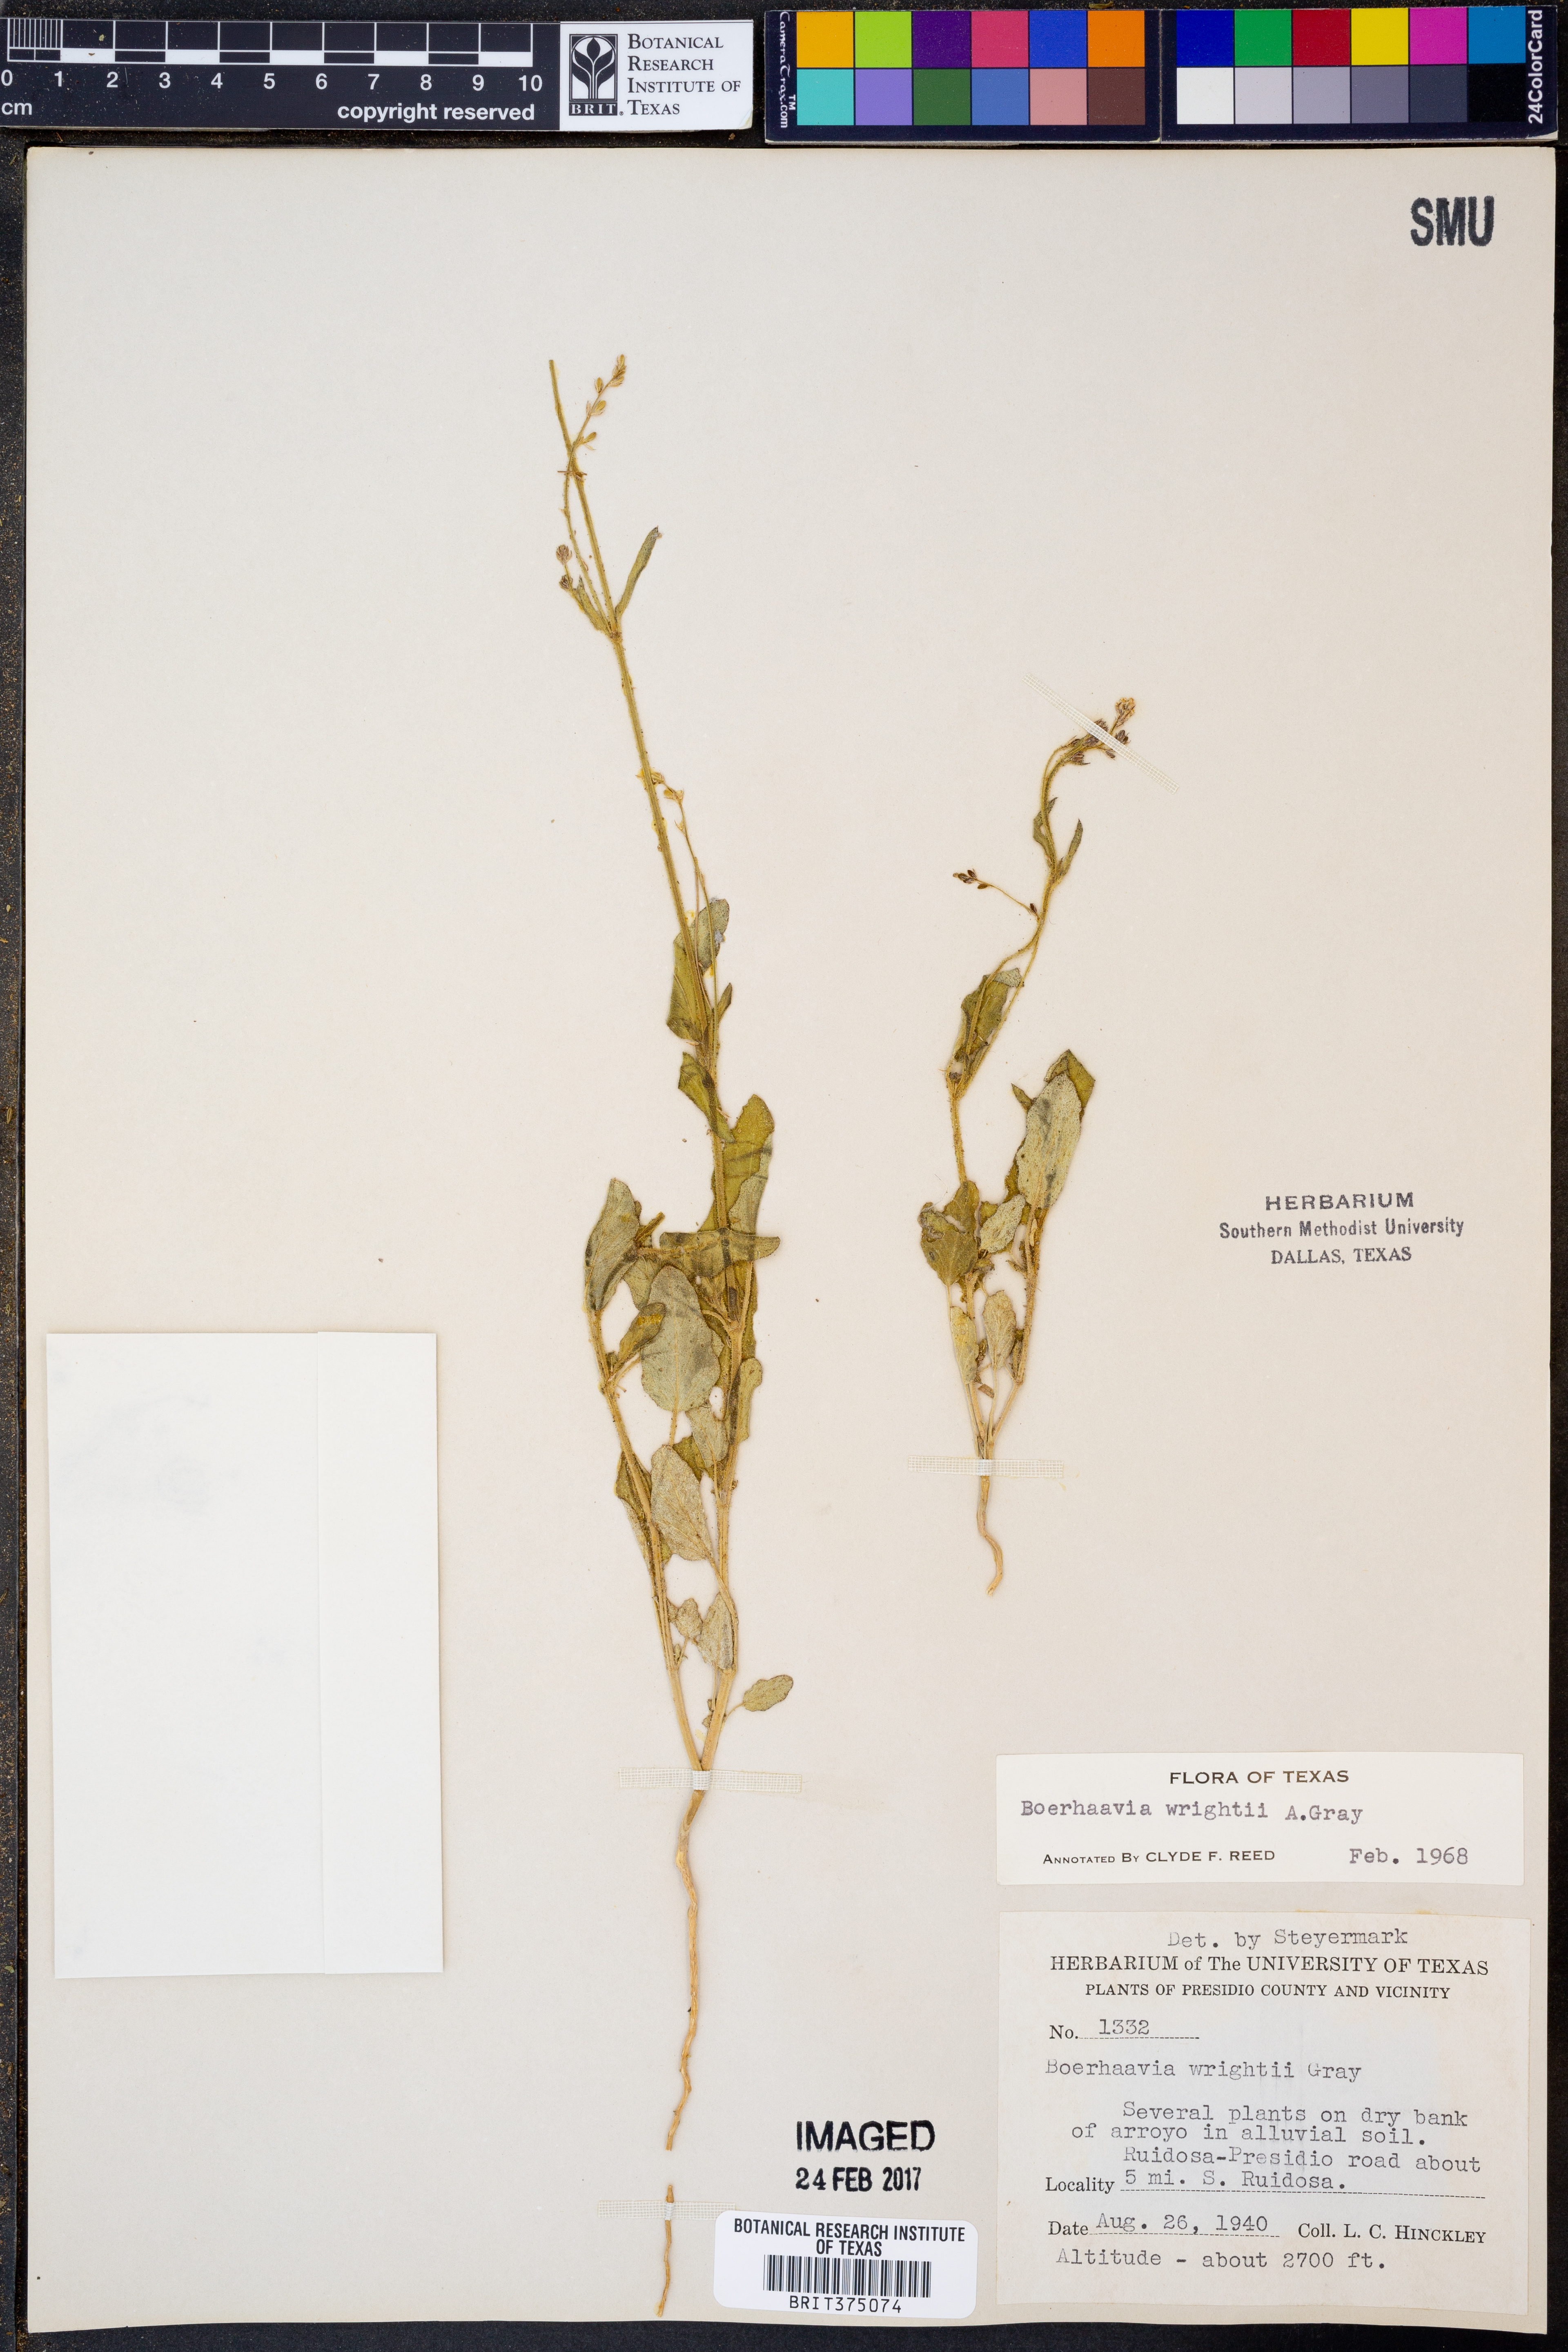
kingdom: Plantae
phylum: Tracheophyta
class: Magnoliopsida
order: Caryophyllales
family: Nyctaginaceae
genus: Boerhavia
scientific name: Boerhavia wrightii
